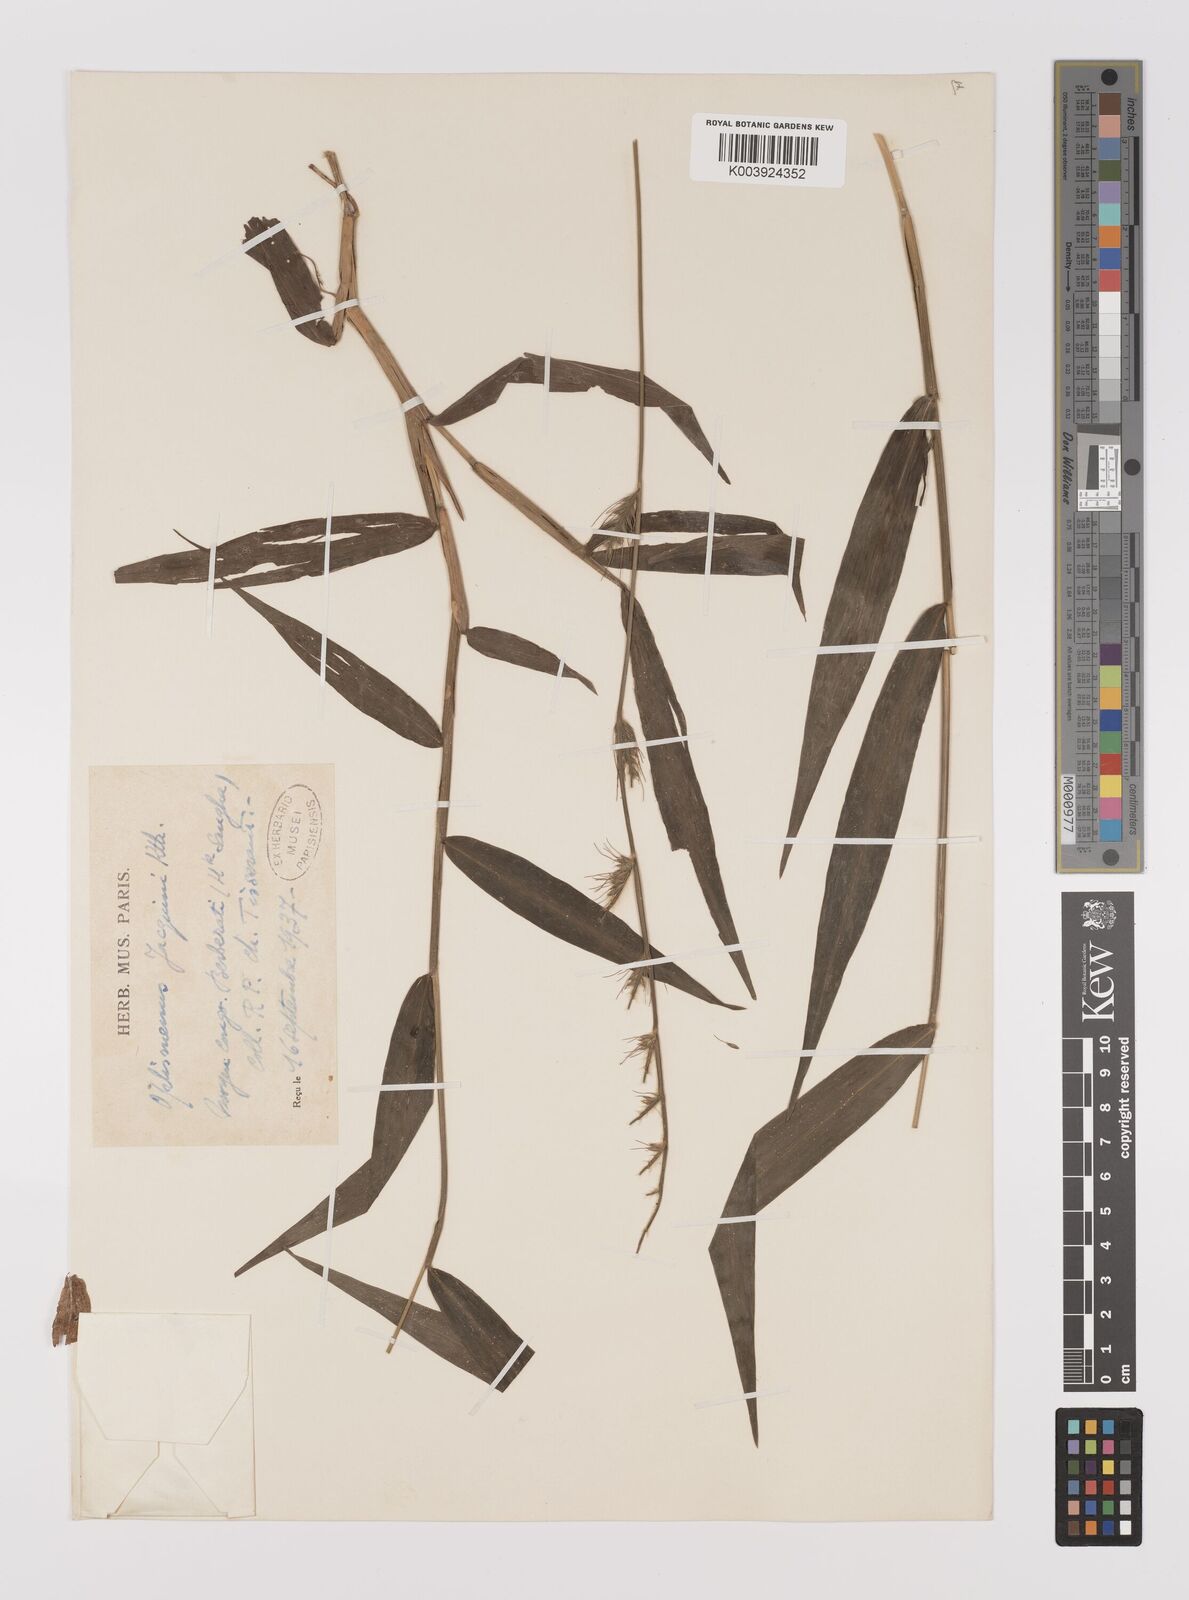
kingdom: Plantae
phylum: Tracheophyta
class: Liliopsida
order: Poales
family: Poaceae
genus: Oplismenus
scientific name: Oplismenus hirtellus
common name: Basketgrass
